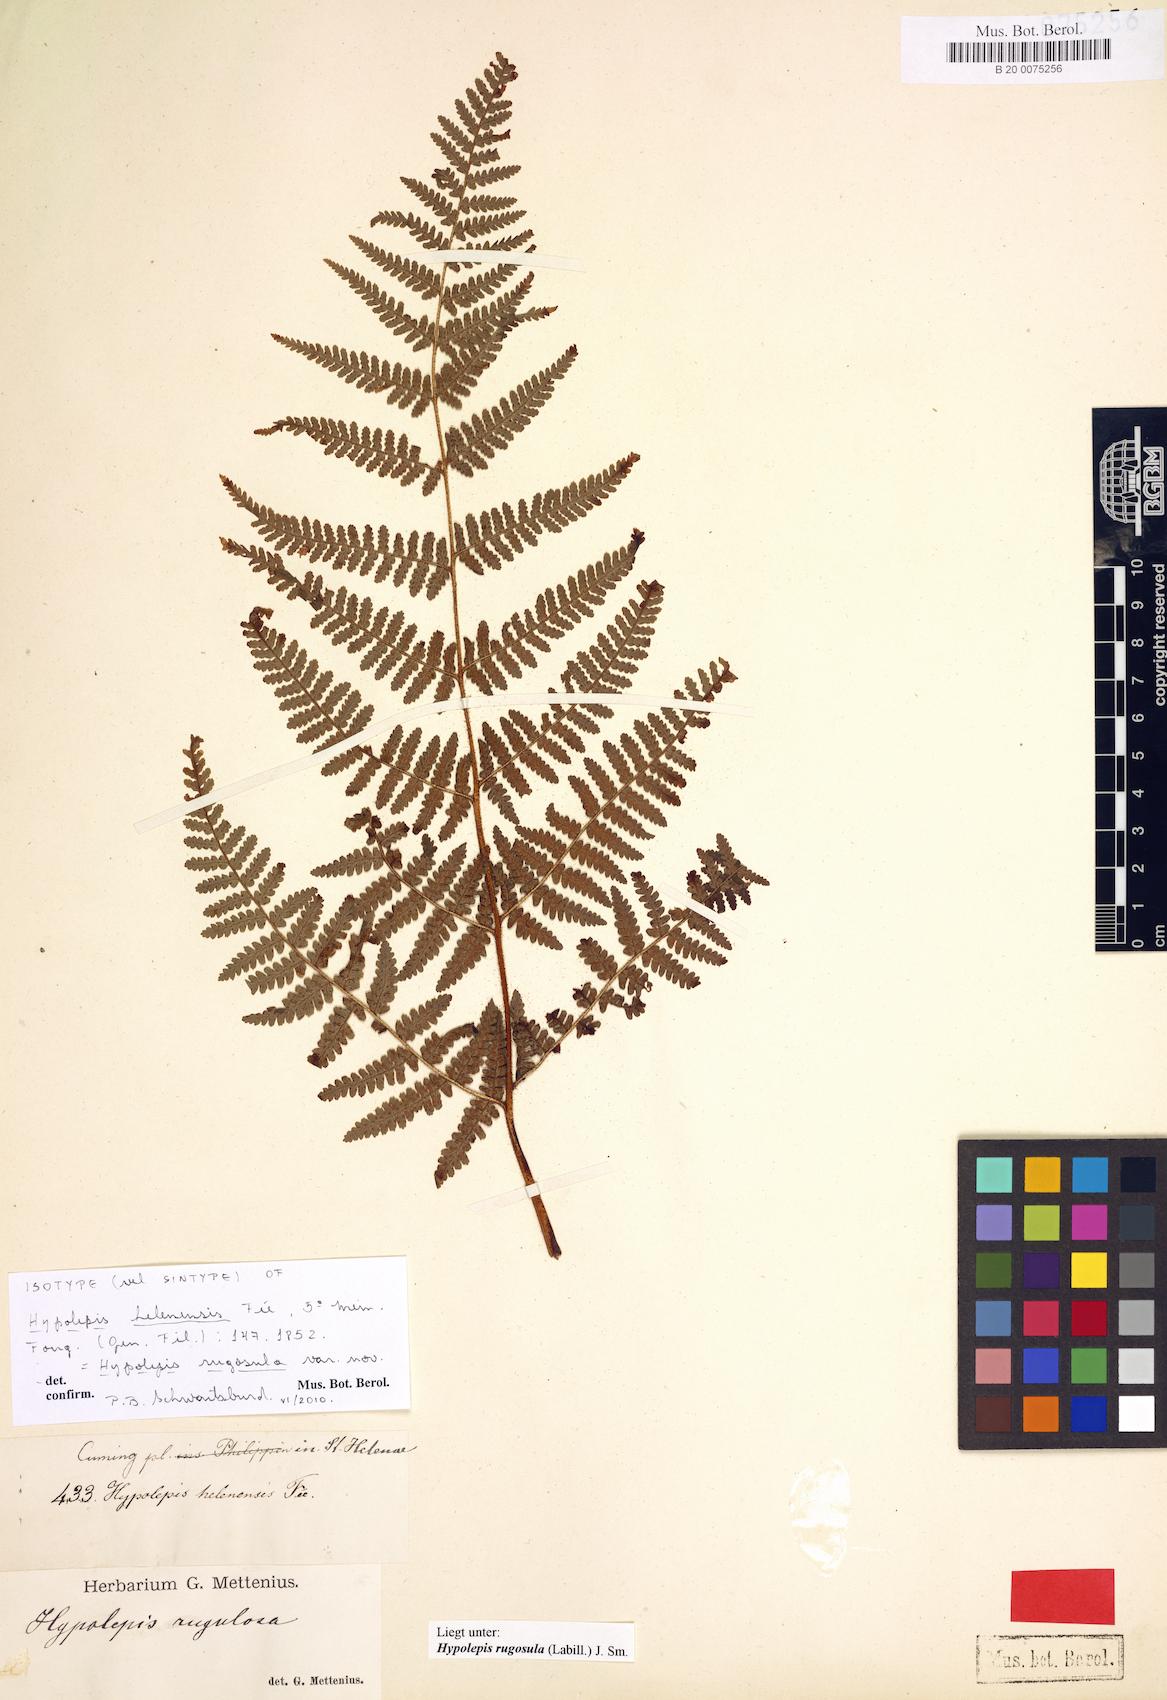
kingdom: Plantae
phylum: Tracheophyta
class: Polypodiopsida
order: Polypodiales
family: Dennstaedtiaceae
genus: Hypolepis
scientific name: Hypolepis rugosula
